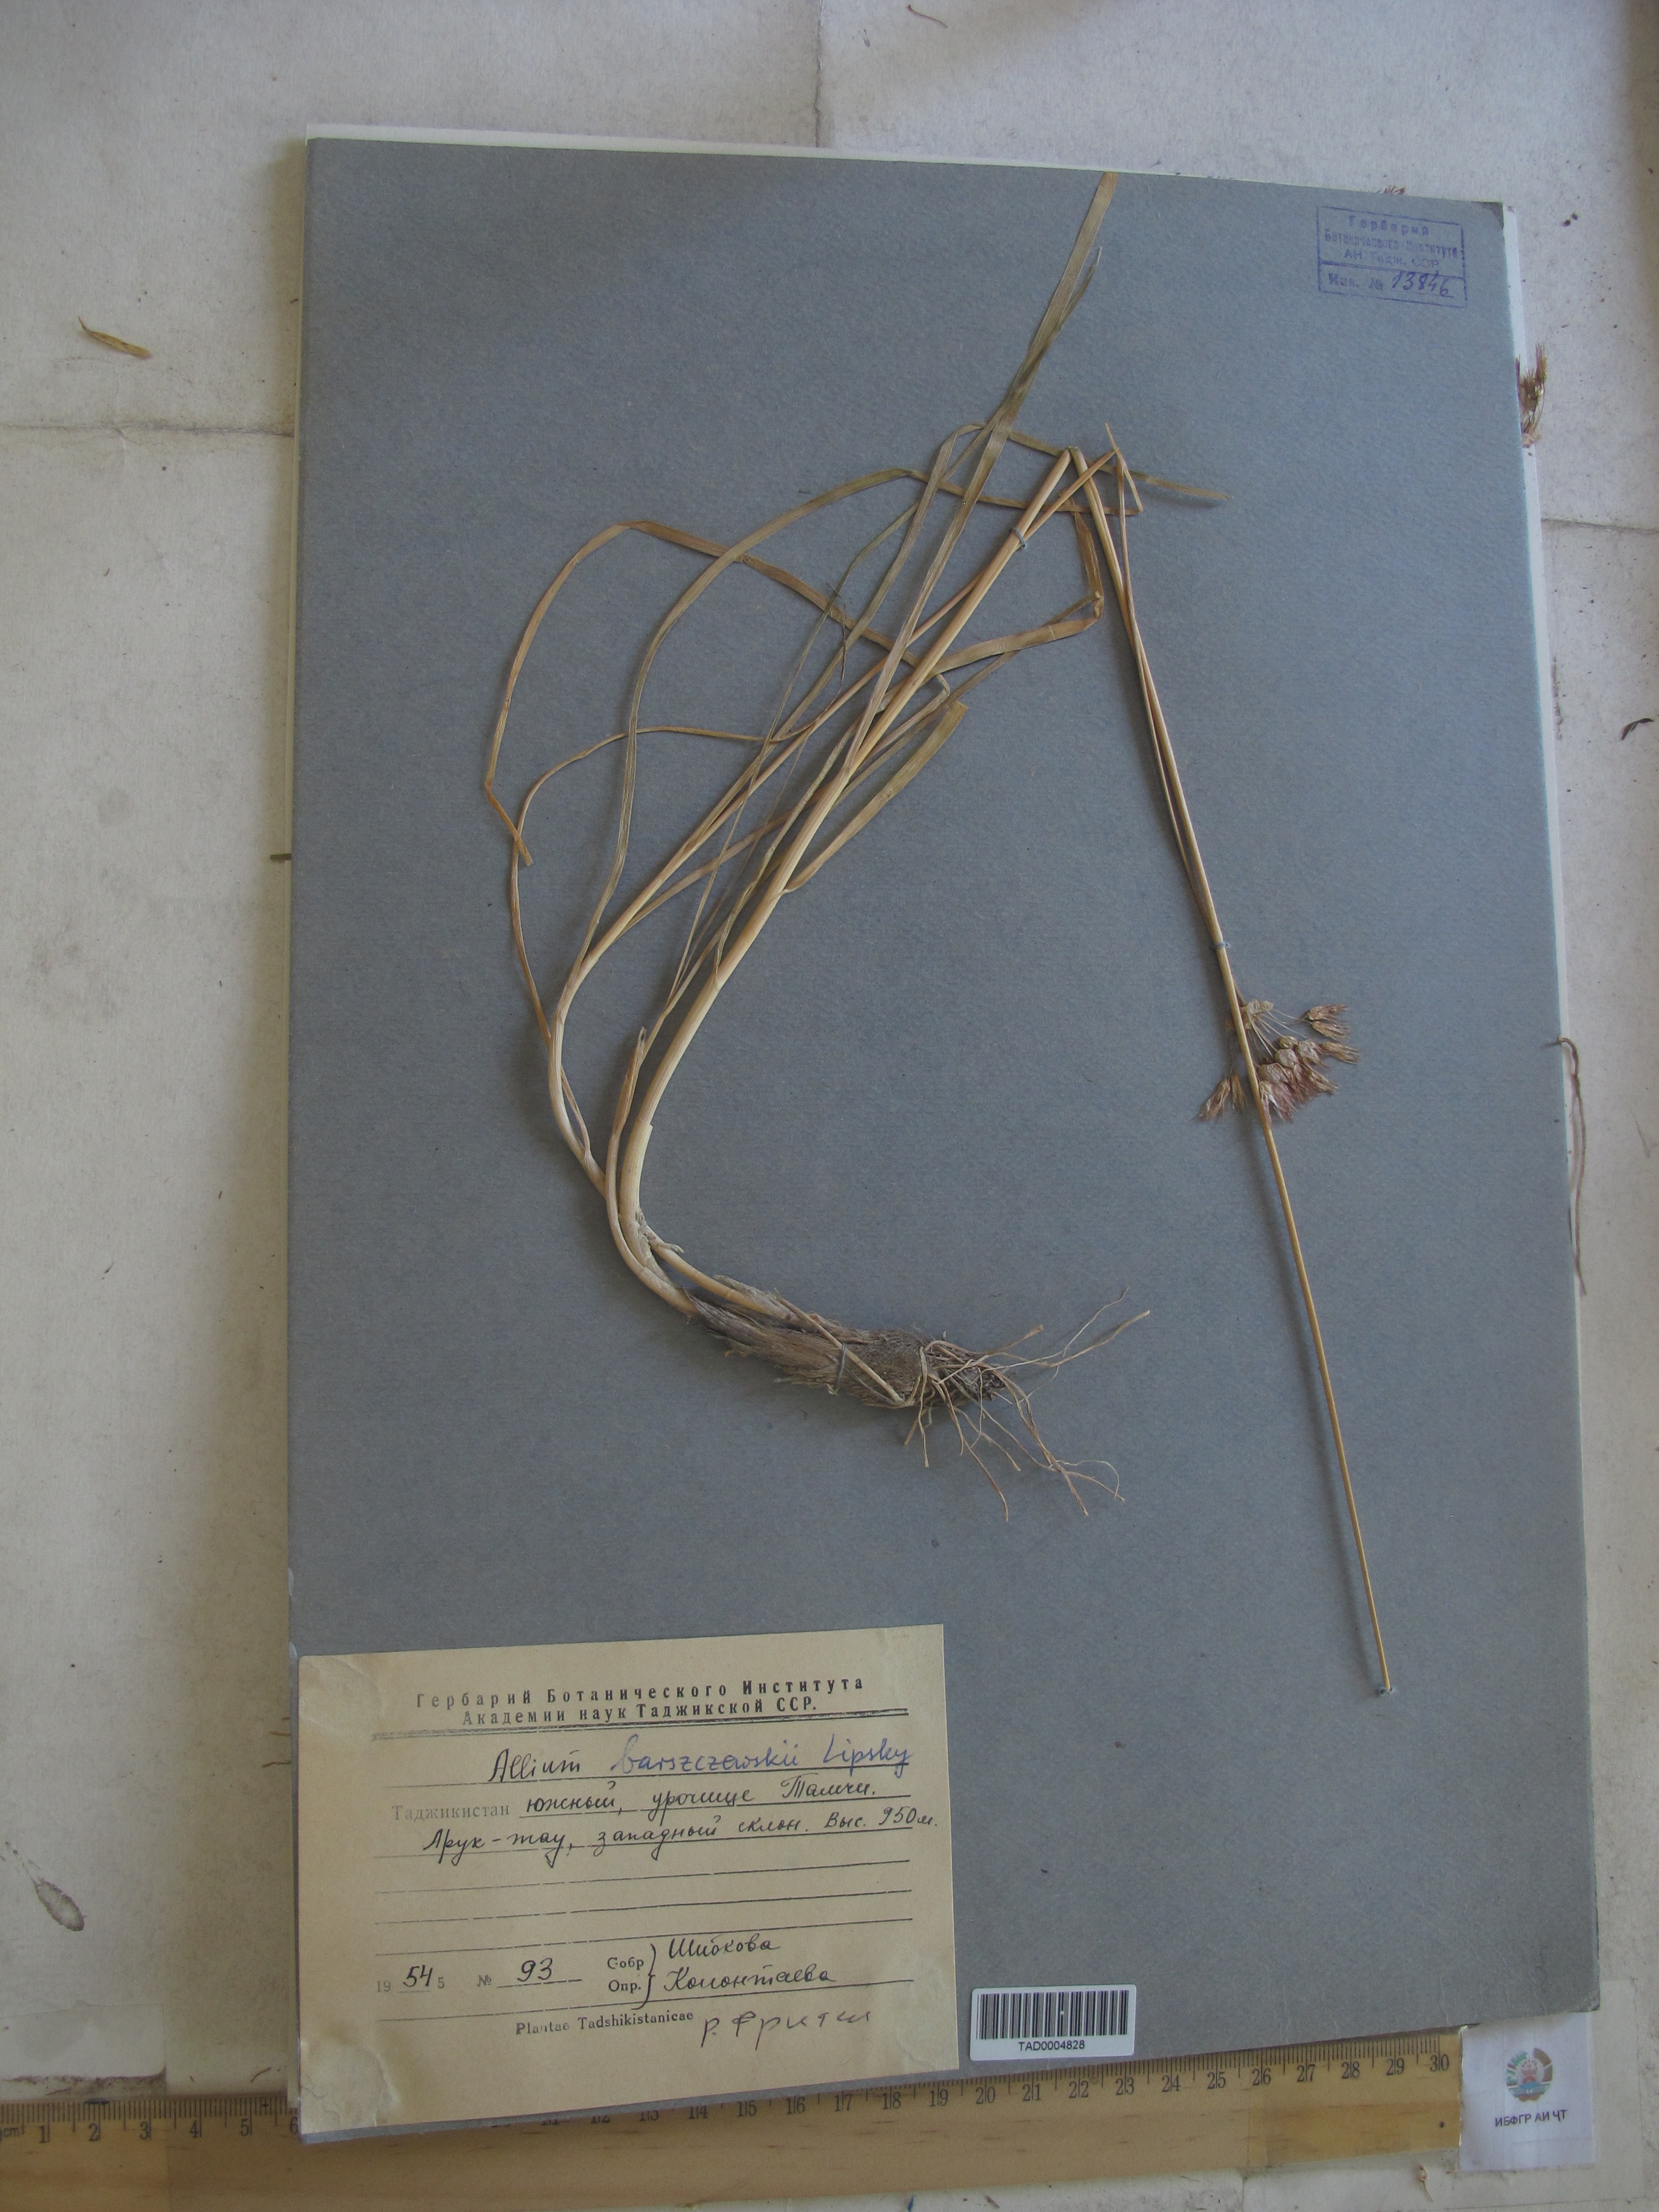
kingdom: Plantae
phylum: Tracheophyta
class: Liliopsida
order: Asparagales
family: Amaryllidaceae
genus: Allium
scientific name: Allium barsczewskii
